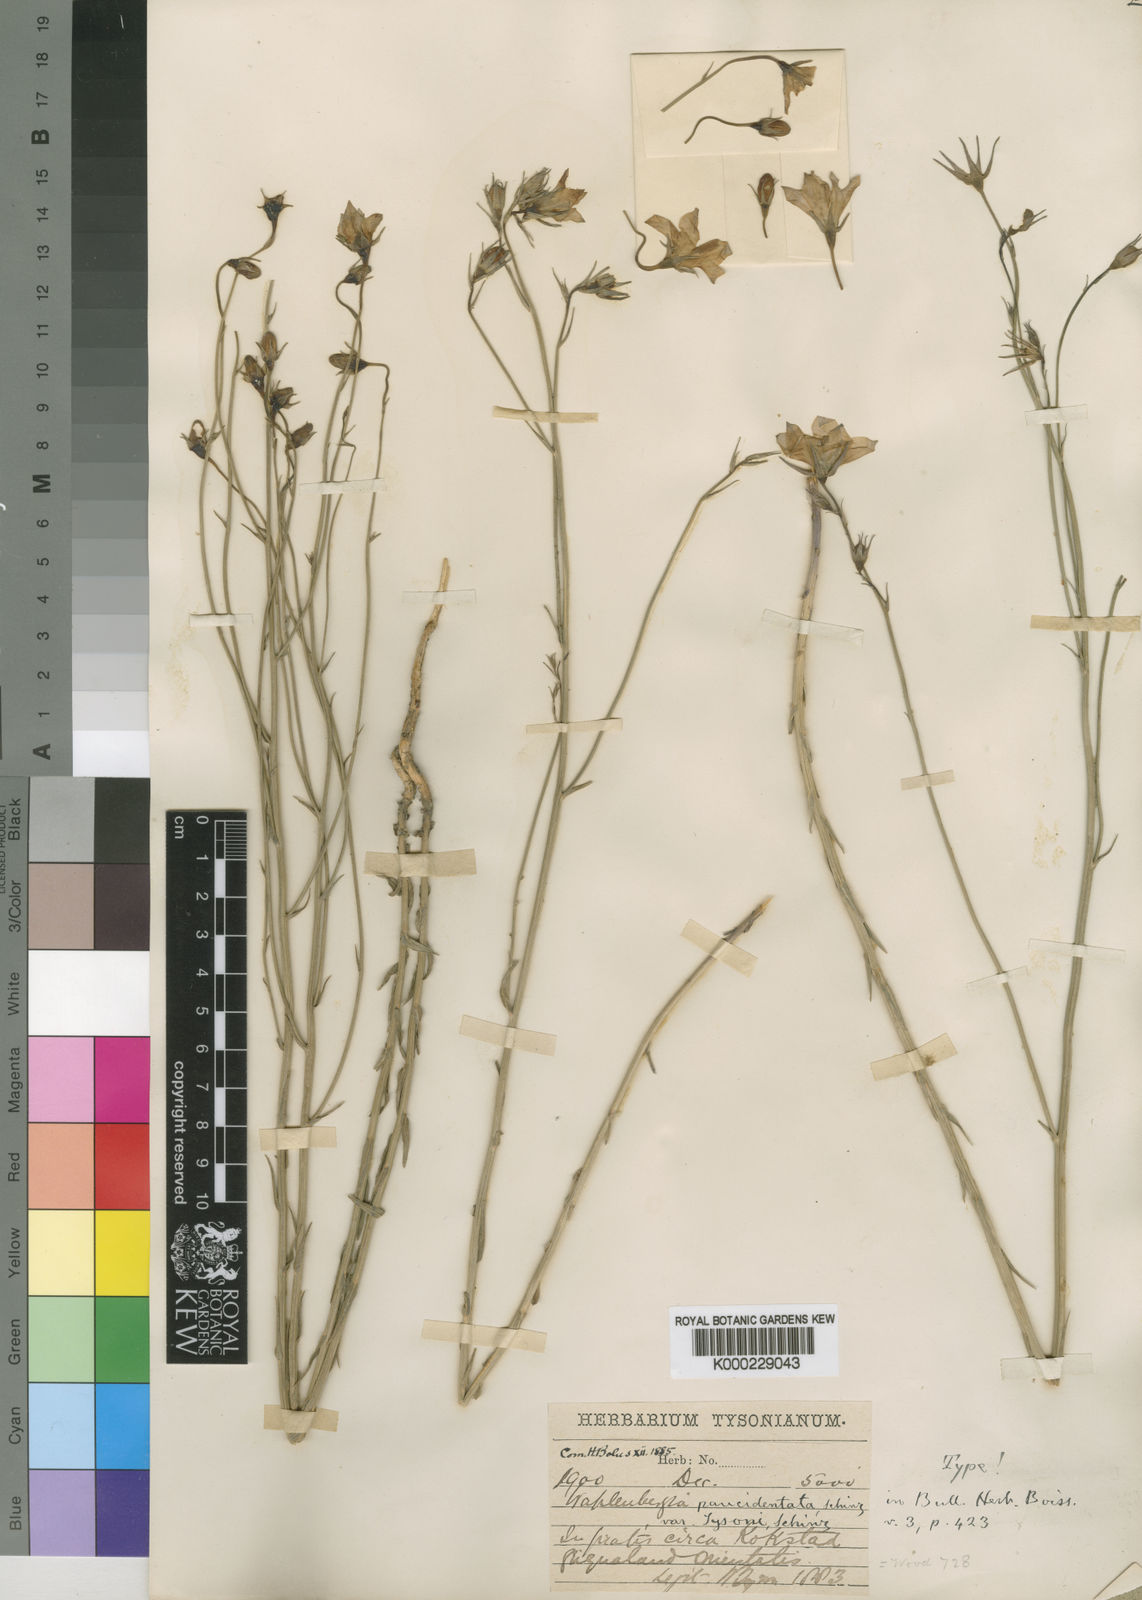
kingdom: Plantae
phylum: Tracheophyta
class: Magnoliopsida
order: Asterales
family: Campanulaceae
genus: Wahlenbergia
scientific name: Wahlenbergia paucidentata
